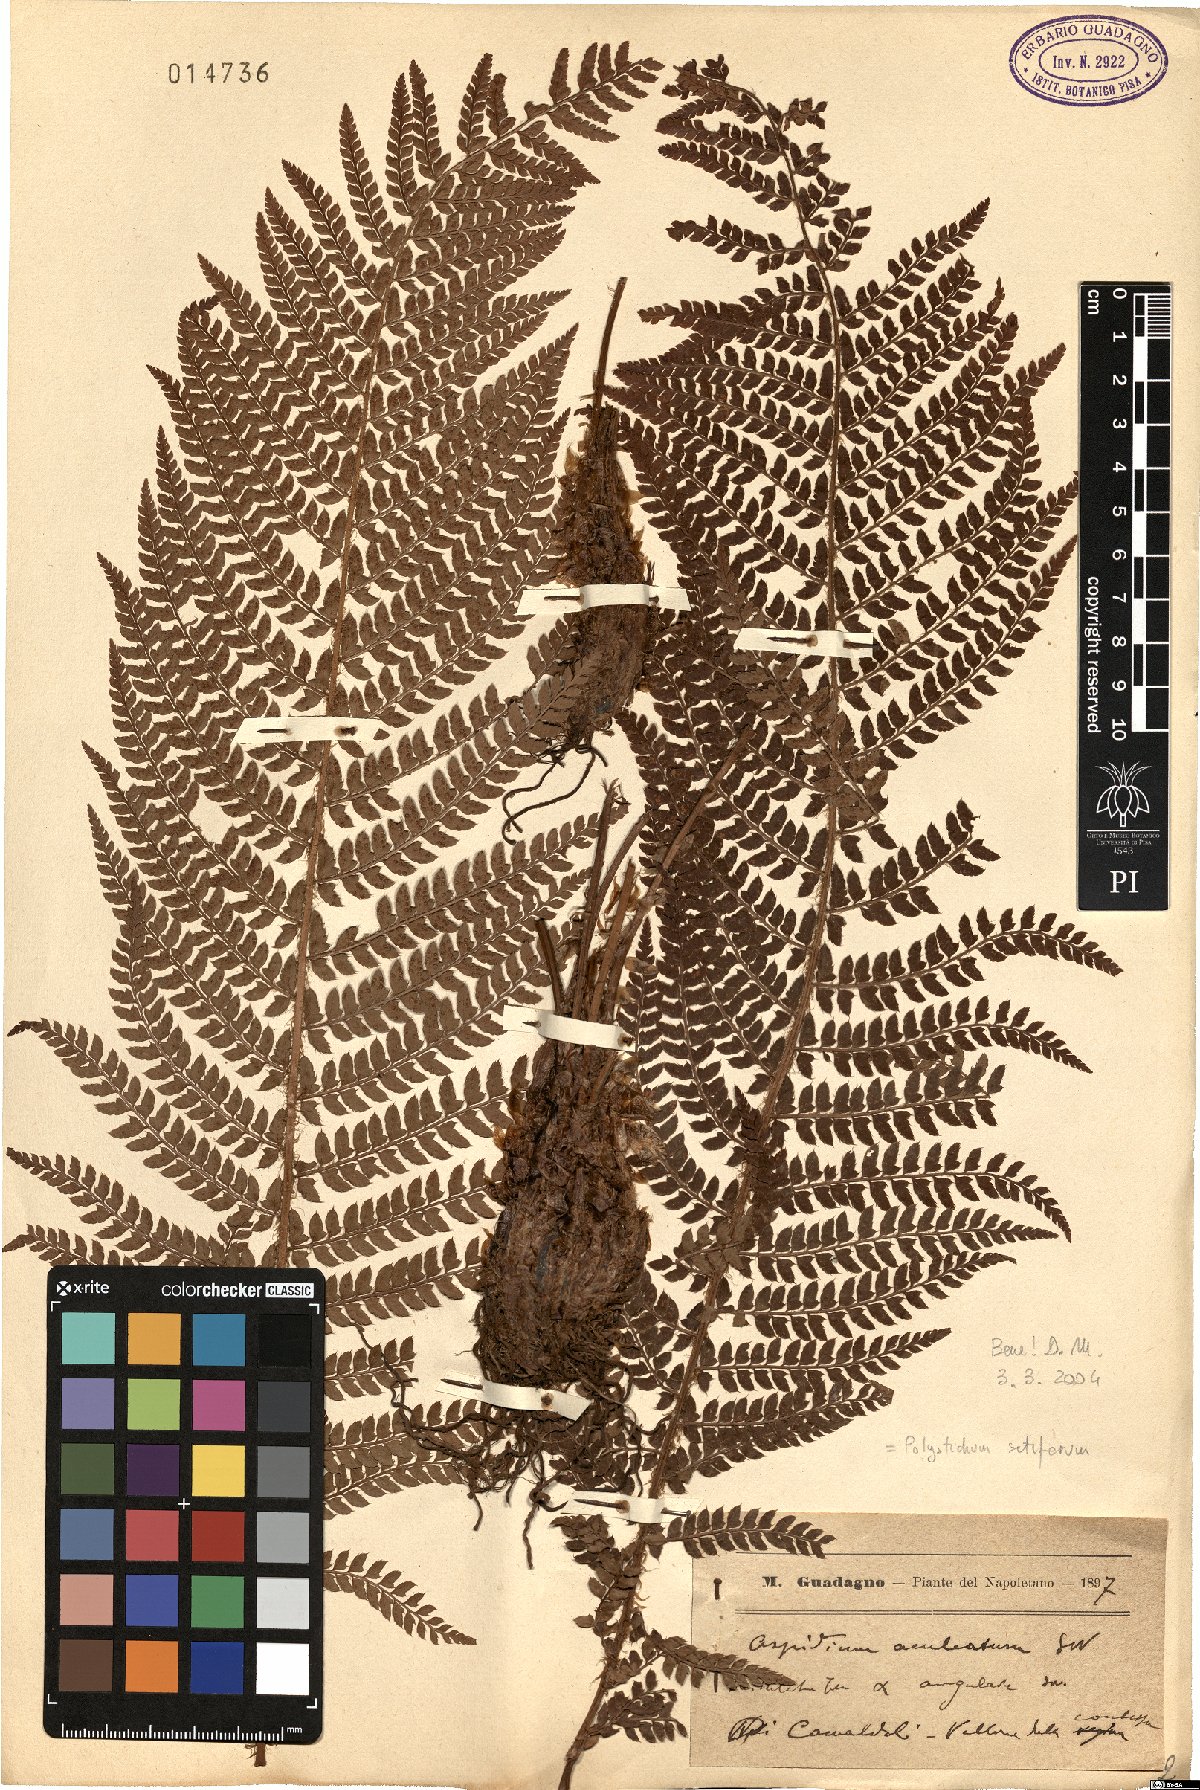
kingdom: Plantae
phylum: Tracheophyta
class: Polypodiopsida
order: Polypodiales
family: Dryopteridaceae
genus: Polystichum
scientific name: Polystichum setiferum
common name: Soft shield-fern
